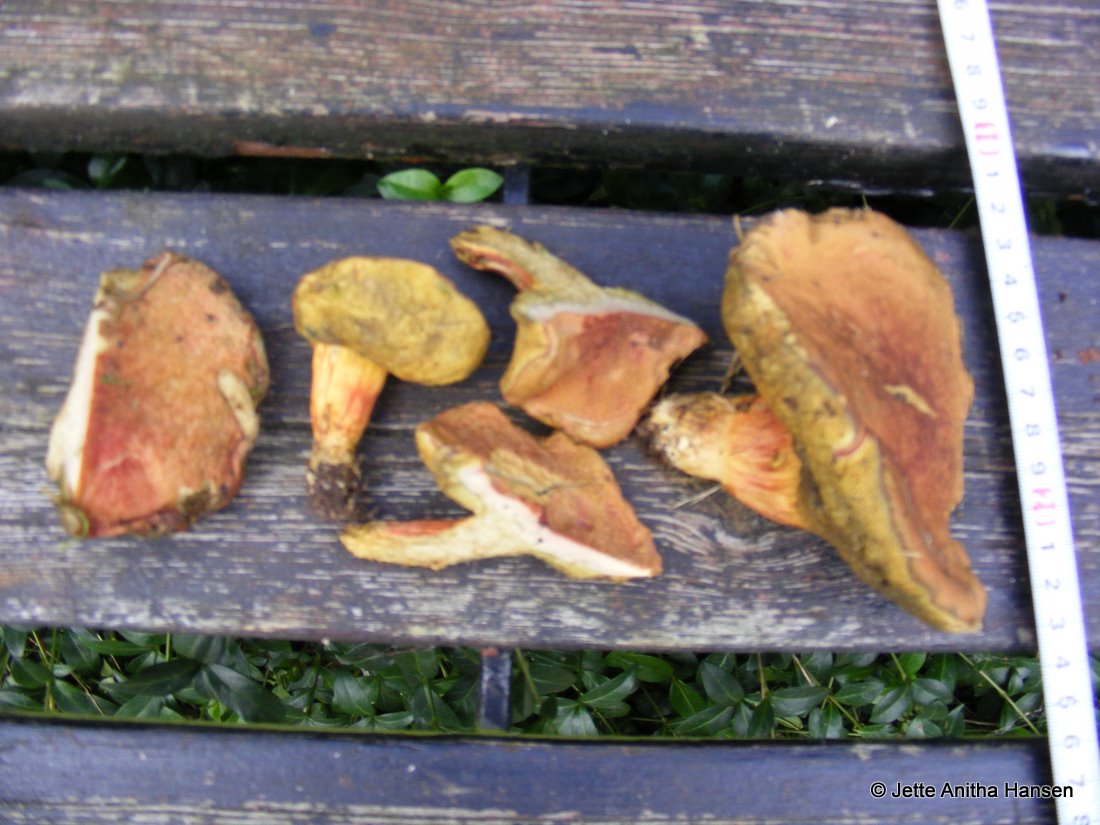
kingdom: Fungi
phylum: Basidiomycota
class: Agaricomycetes
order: Boletales
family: Boletaceae
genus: Hortiboletus
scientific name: Hortiboletus rubellus
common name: blodrød rørhat
